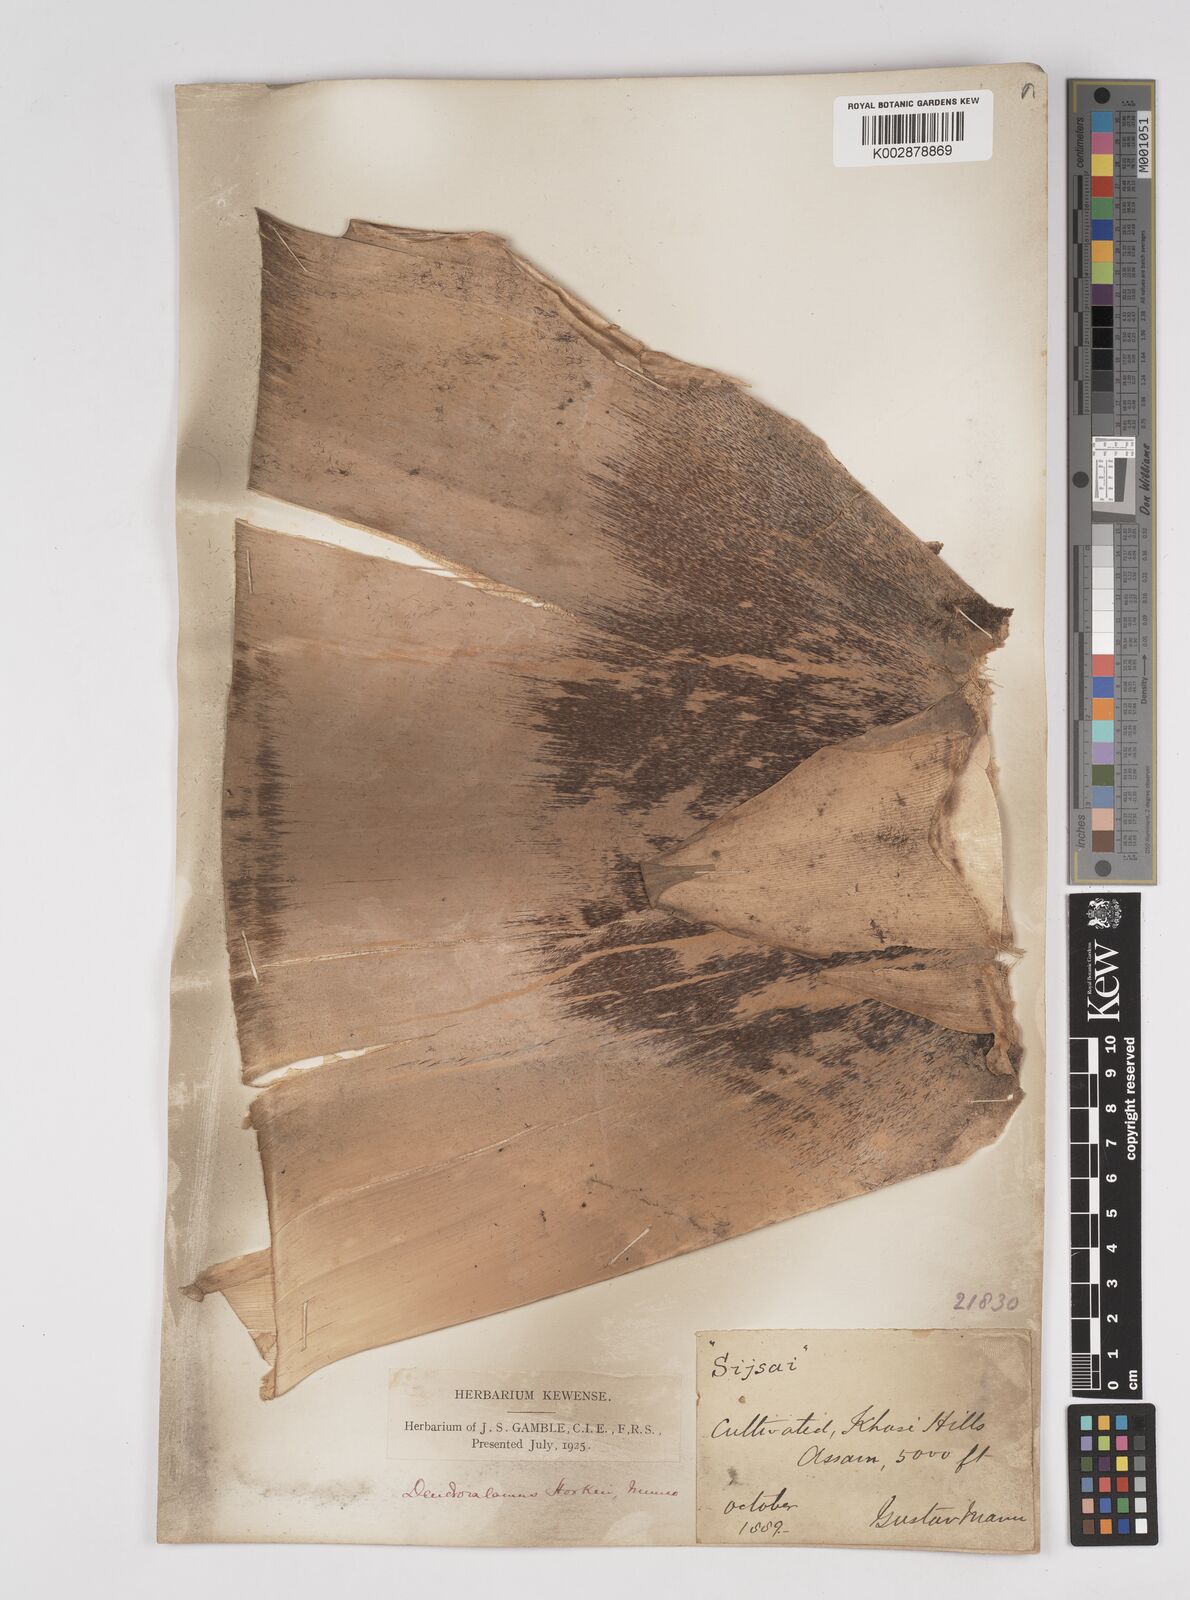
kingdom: Plantae
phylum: Tracheophyta
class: Liliopsida
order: Poales
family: Poaceae
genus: Dendrocalamus
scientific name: Dendrocalamus hookeri
